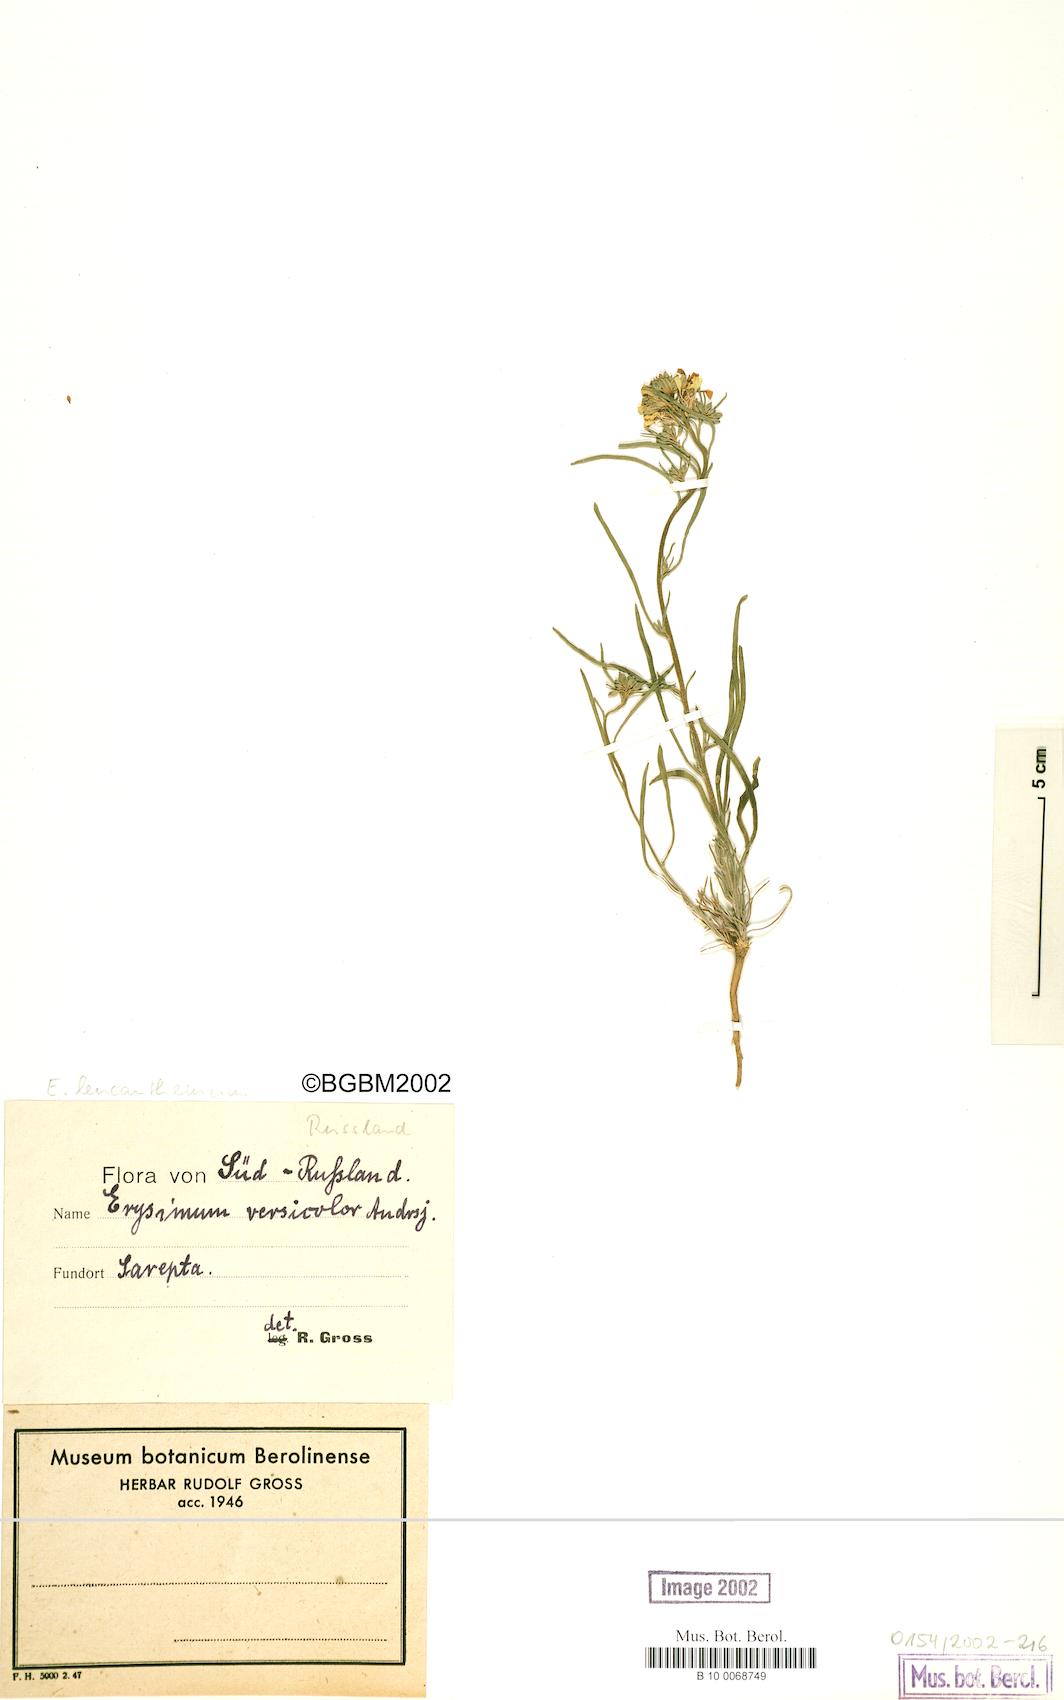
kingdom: Plantae
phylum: Tracheophyta
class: Magnoliopsida
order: Brassicales
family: Brassicaceae
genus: Erysimum
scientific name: Erysimum leucanthemum
